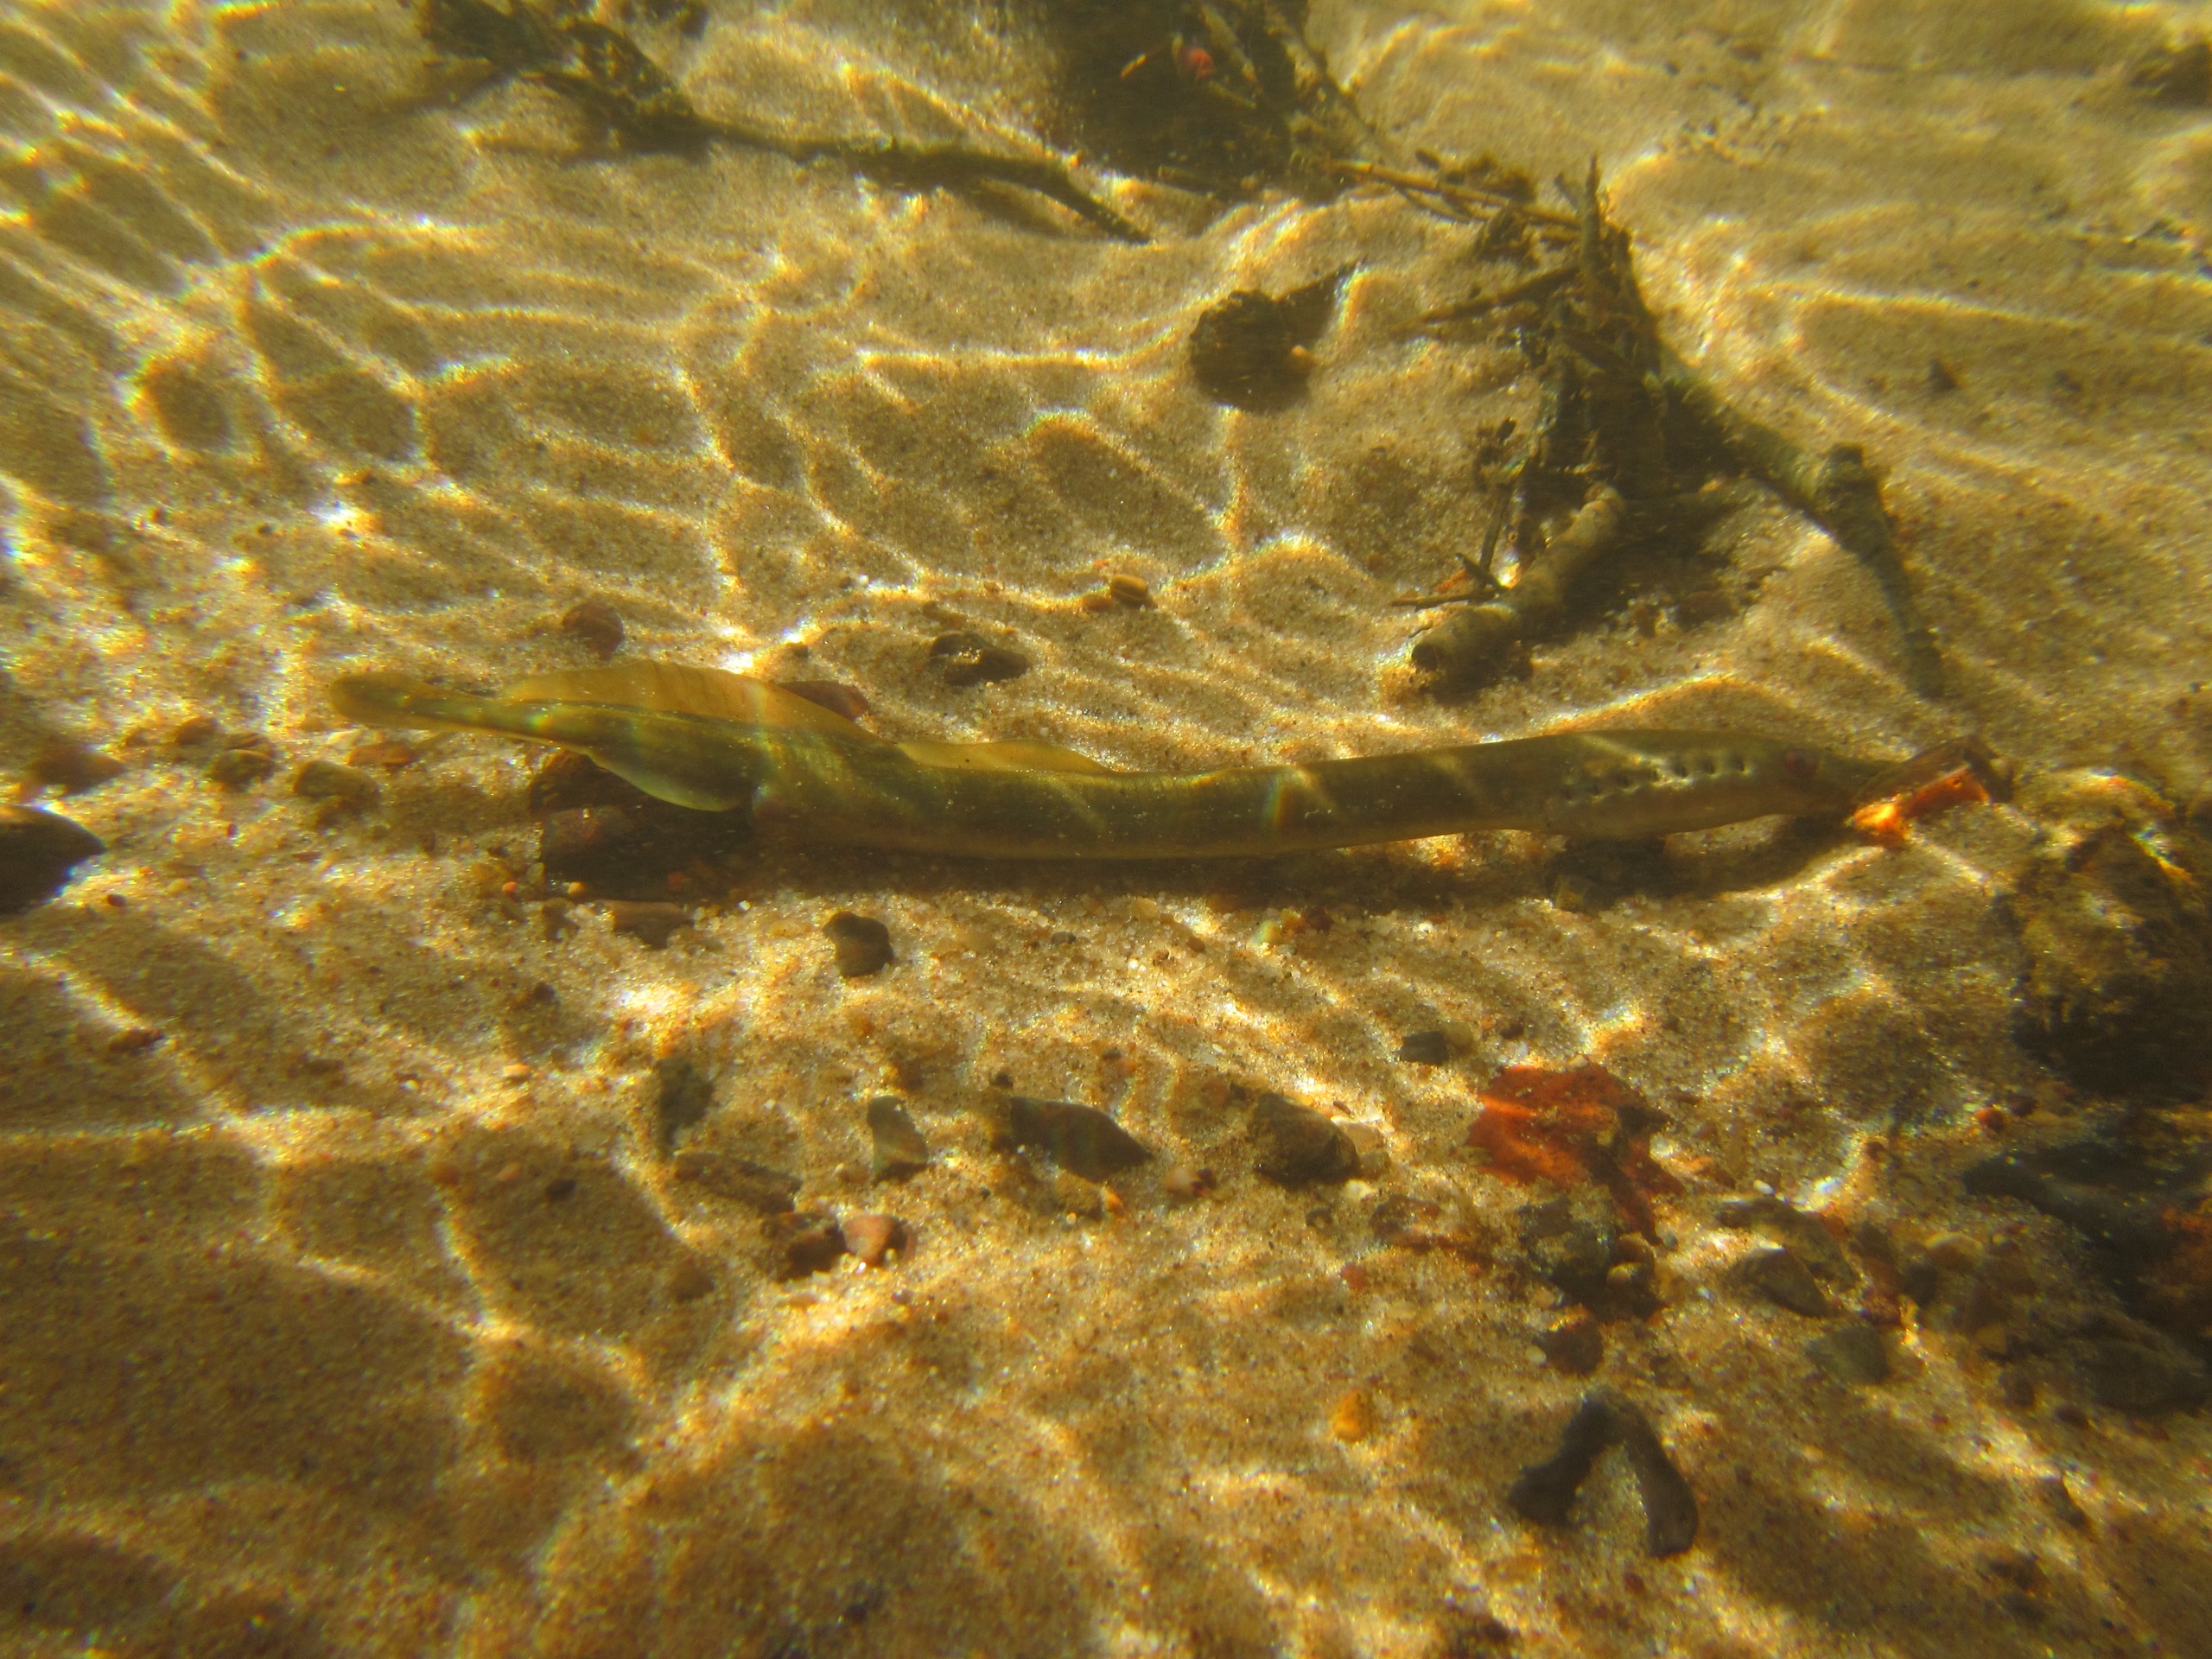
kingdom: Animalia
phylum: Chordata
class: Petromyzonti
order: Petromyzontiformes
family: Petromyzontidae
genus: Lampetra
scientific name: Lampetra planeri
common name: Bæklampret
